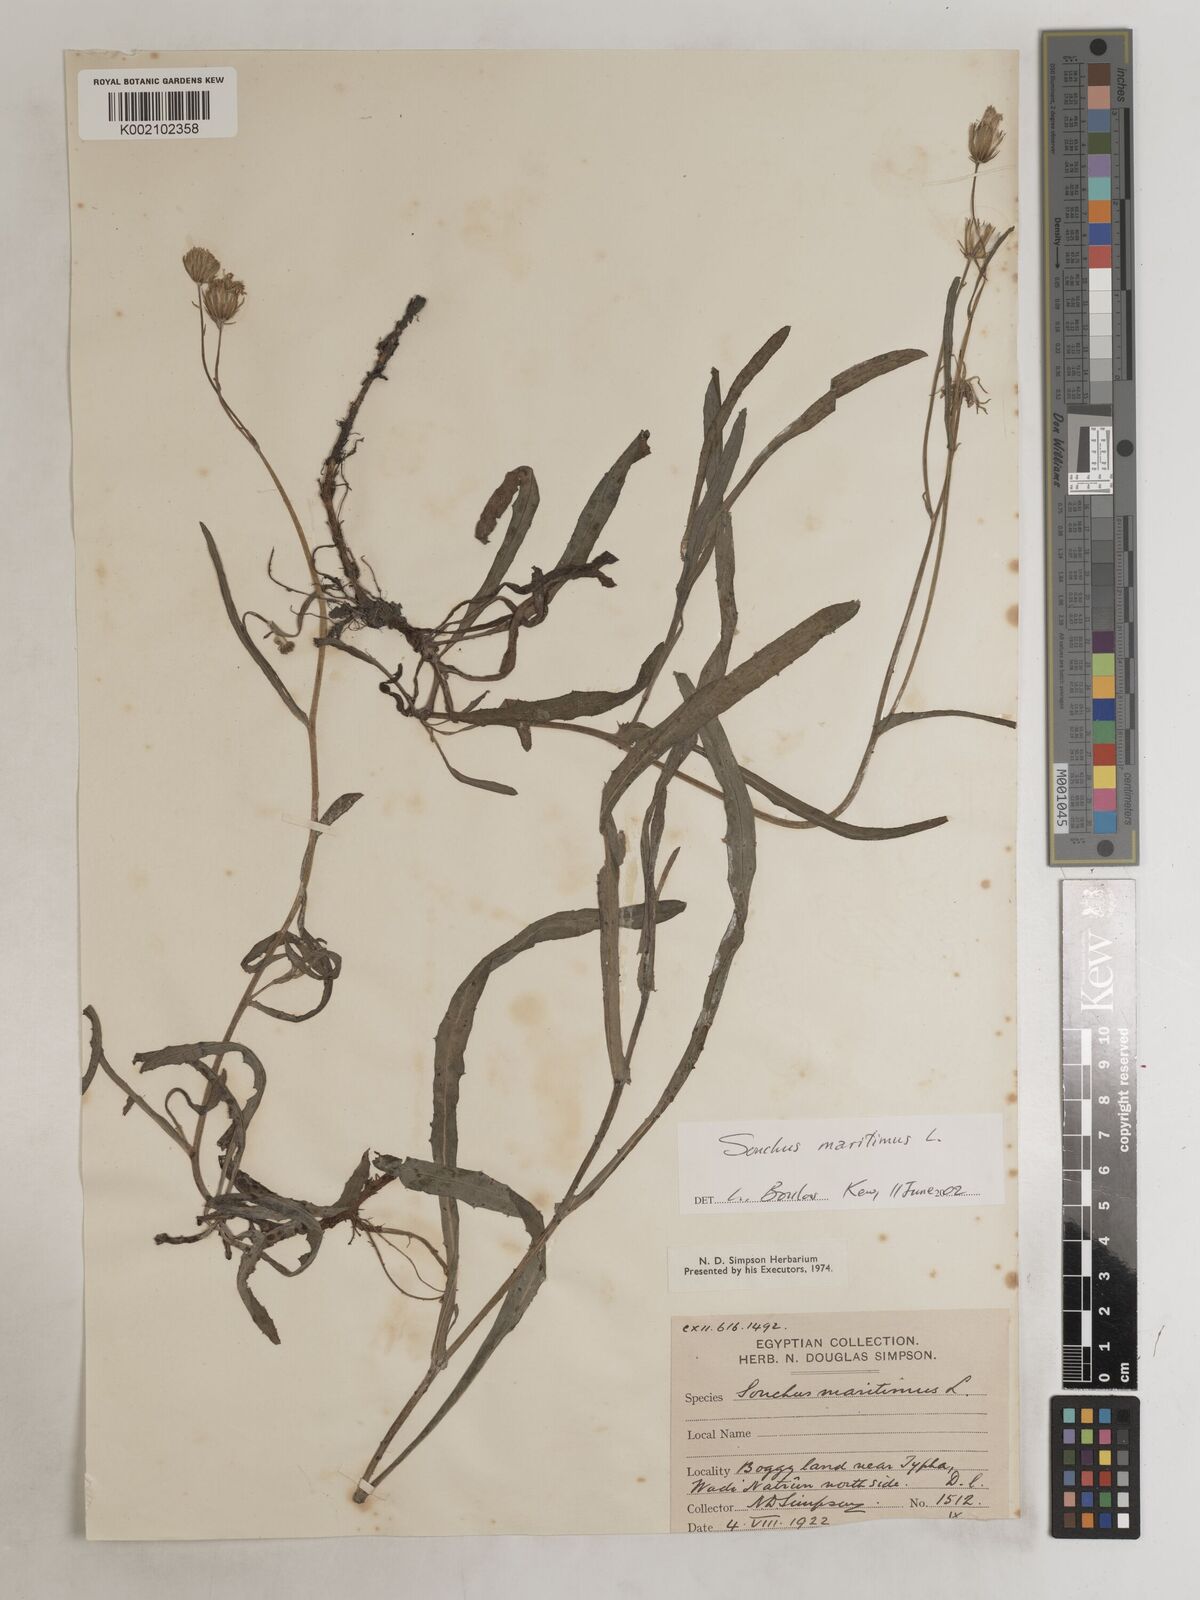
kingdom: Plantae
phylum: Tracheophyta
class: Magnoliopsida
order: Asterales
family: Asteraceae
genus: Sonchus
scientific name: Sonchus maritimus
